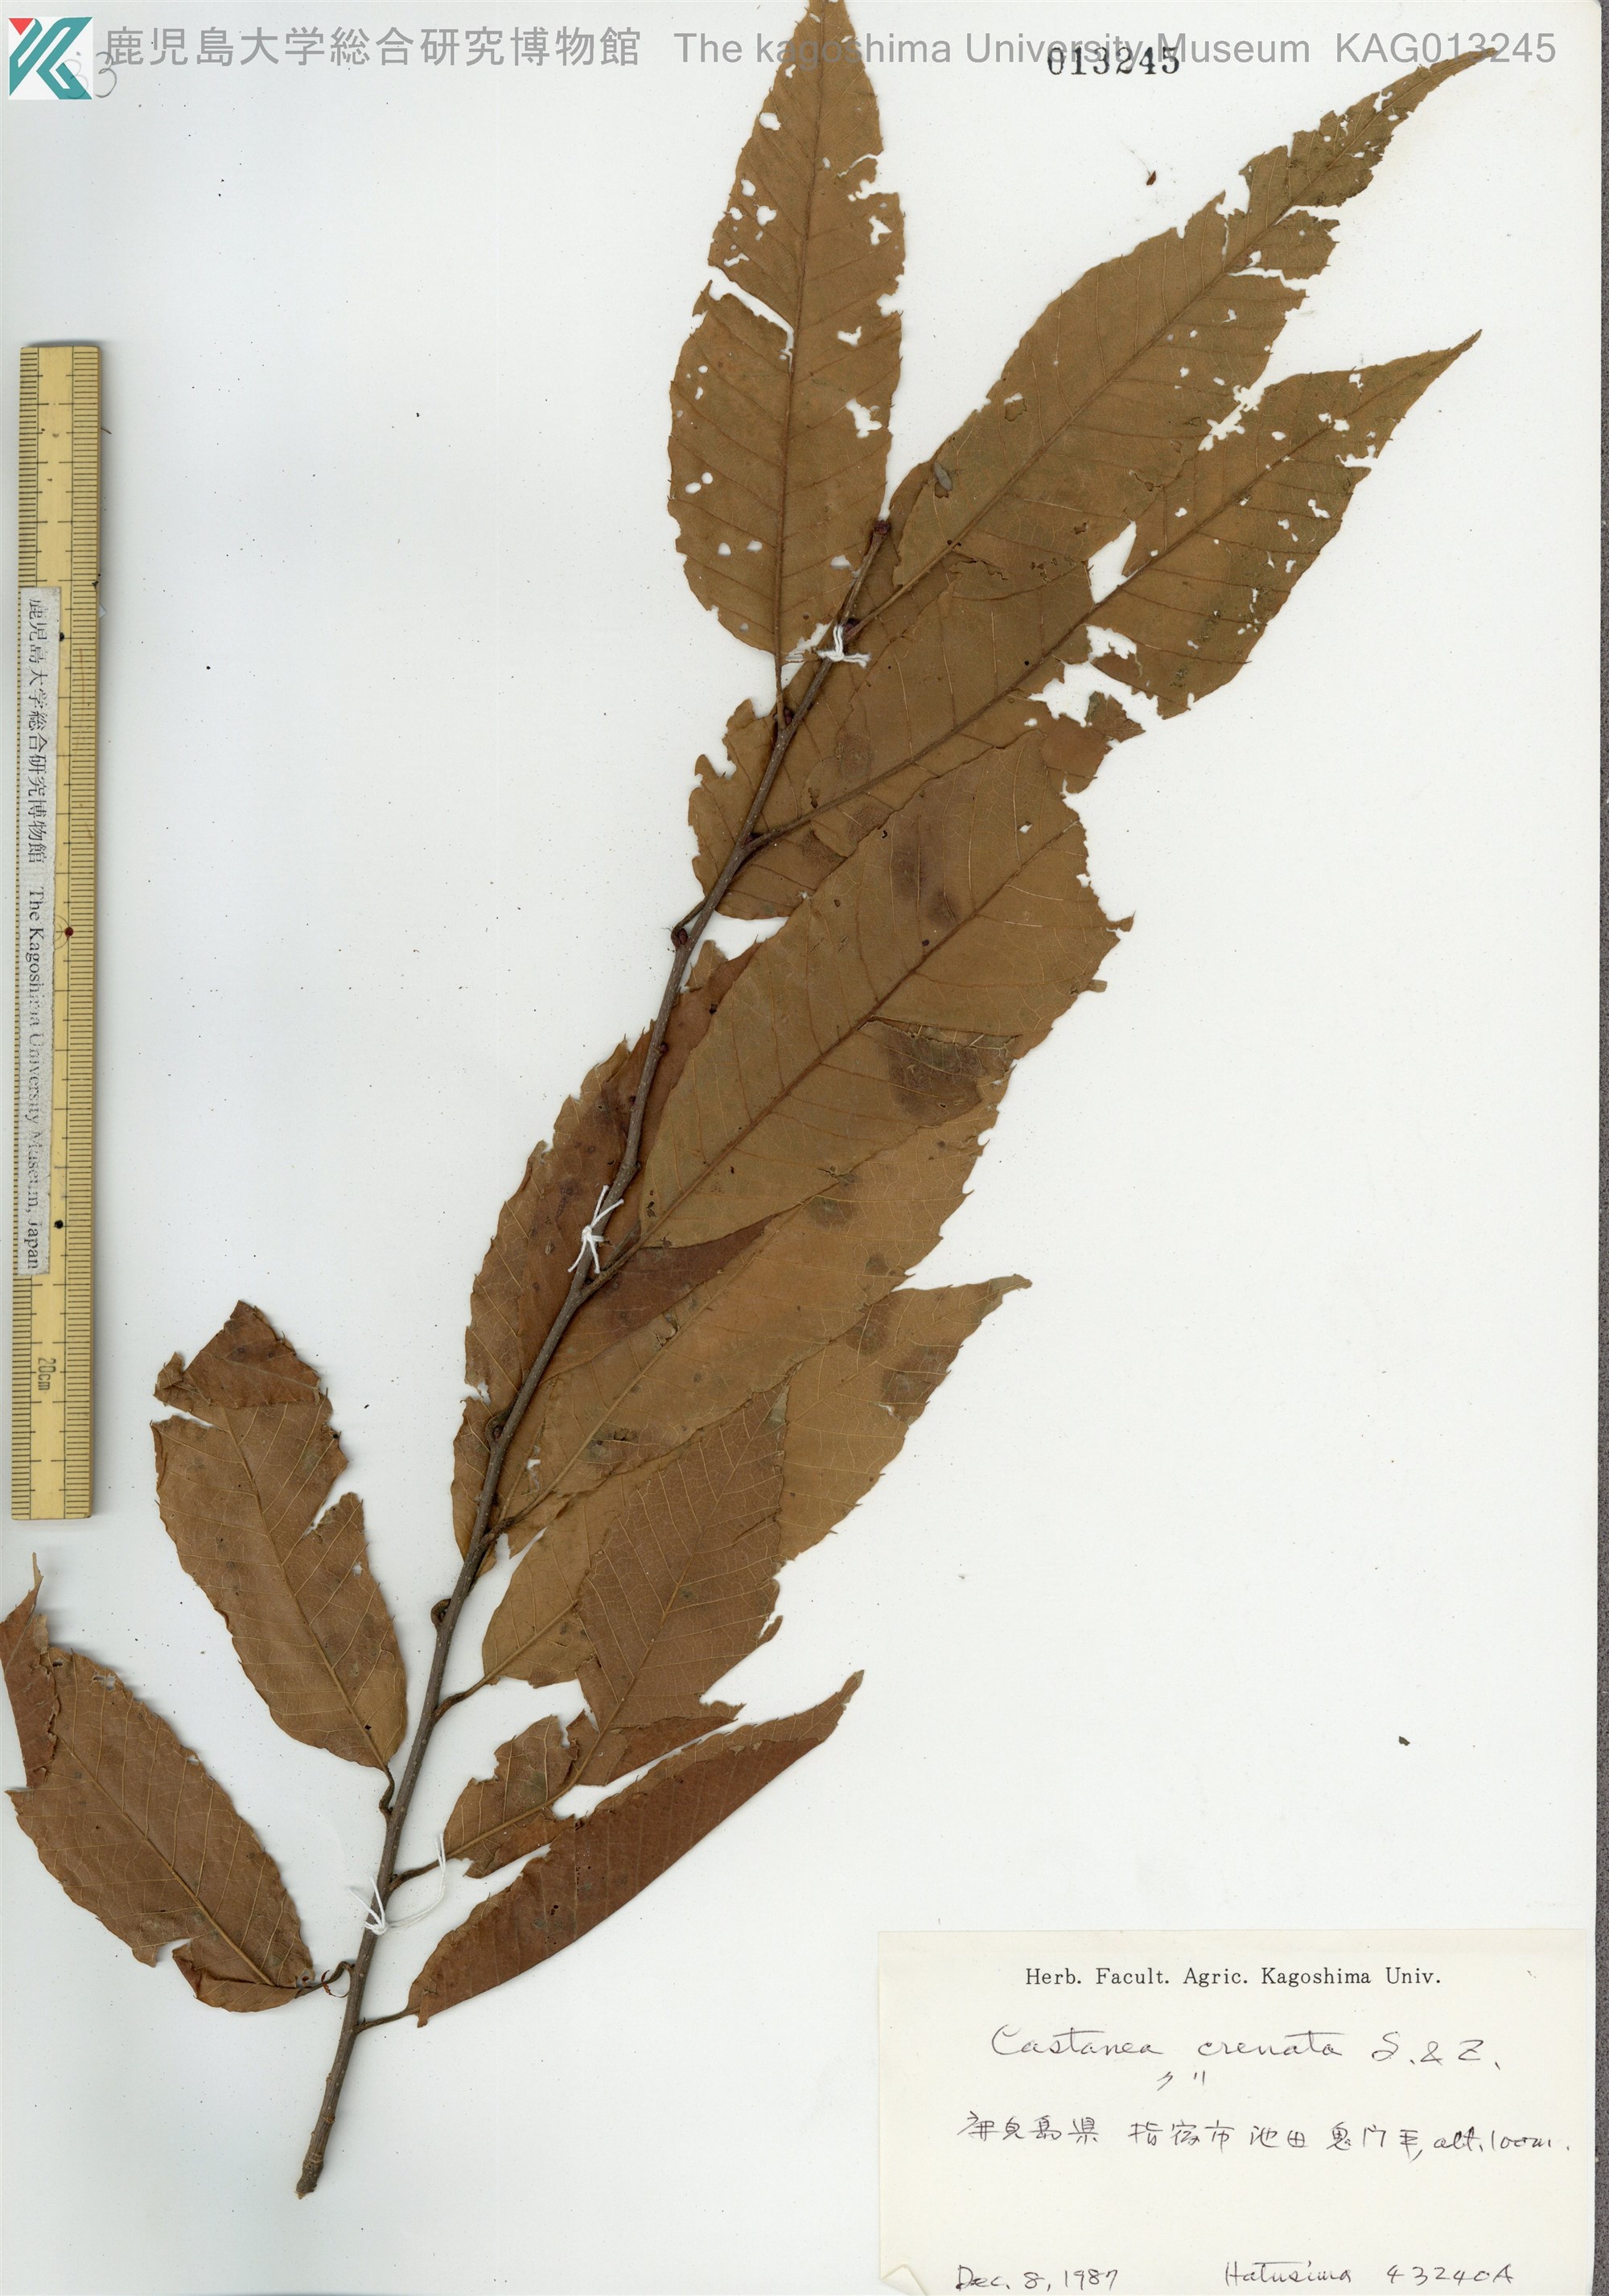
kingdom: Plantae
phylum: Tracheophyta
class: Magnoliopsida
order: Fagales
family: Fagaceae
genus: Castanea
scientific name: Castanea crenata
